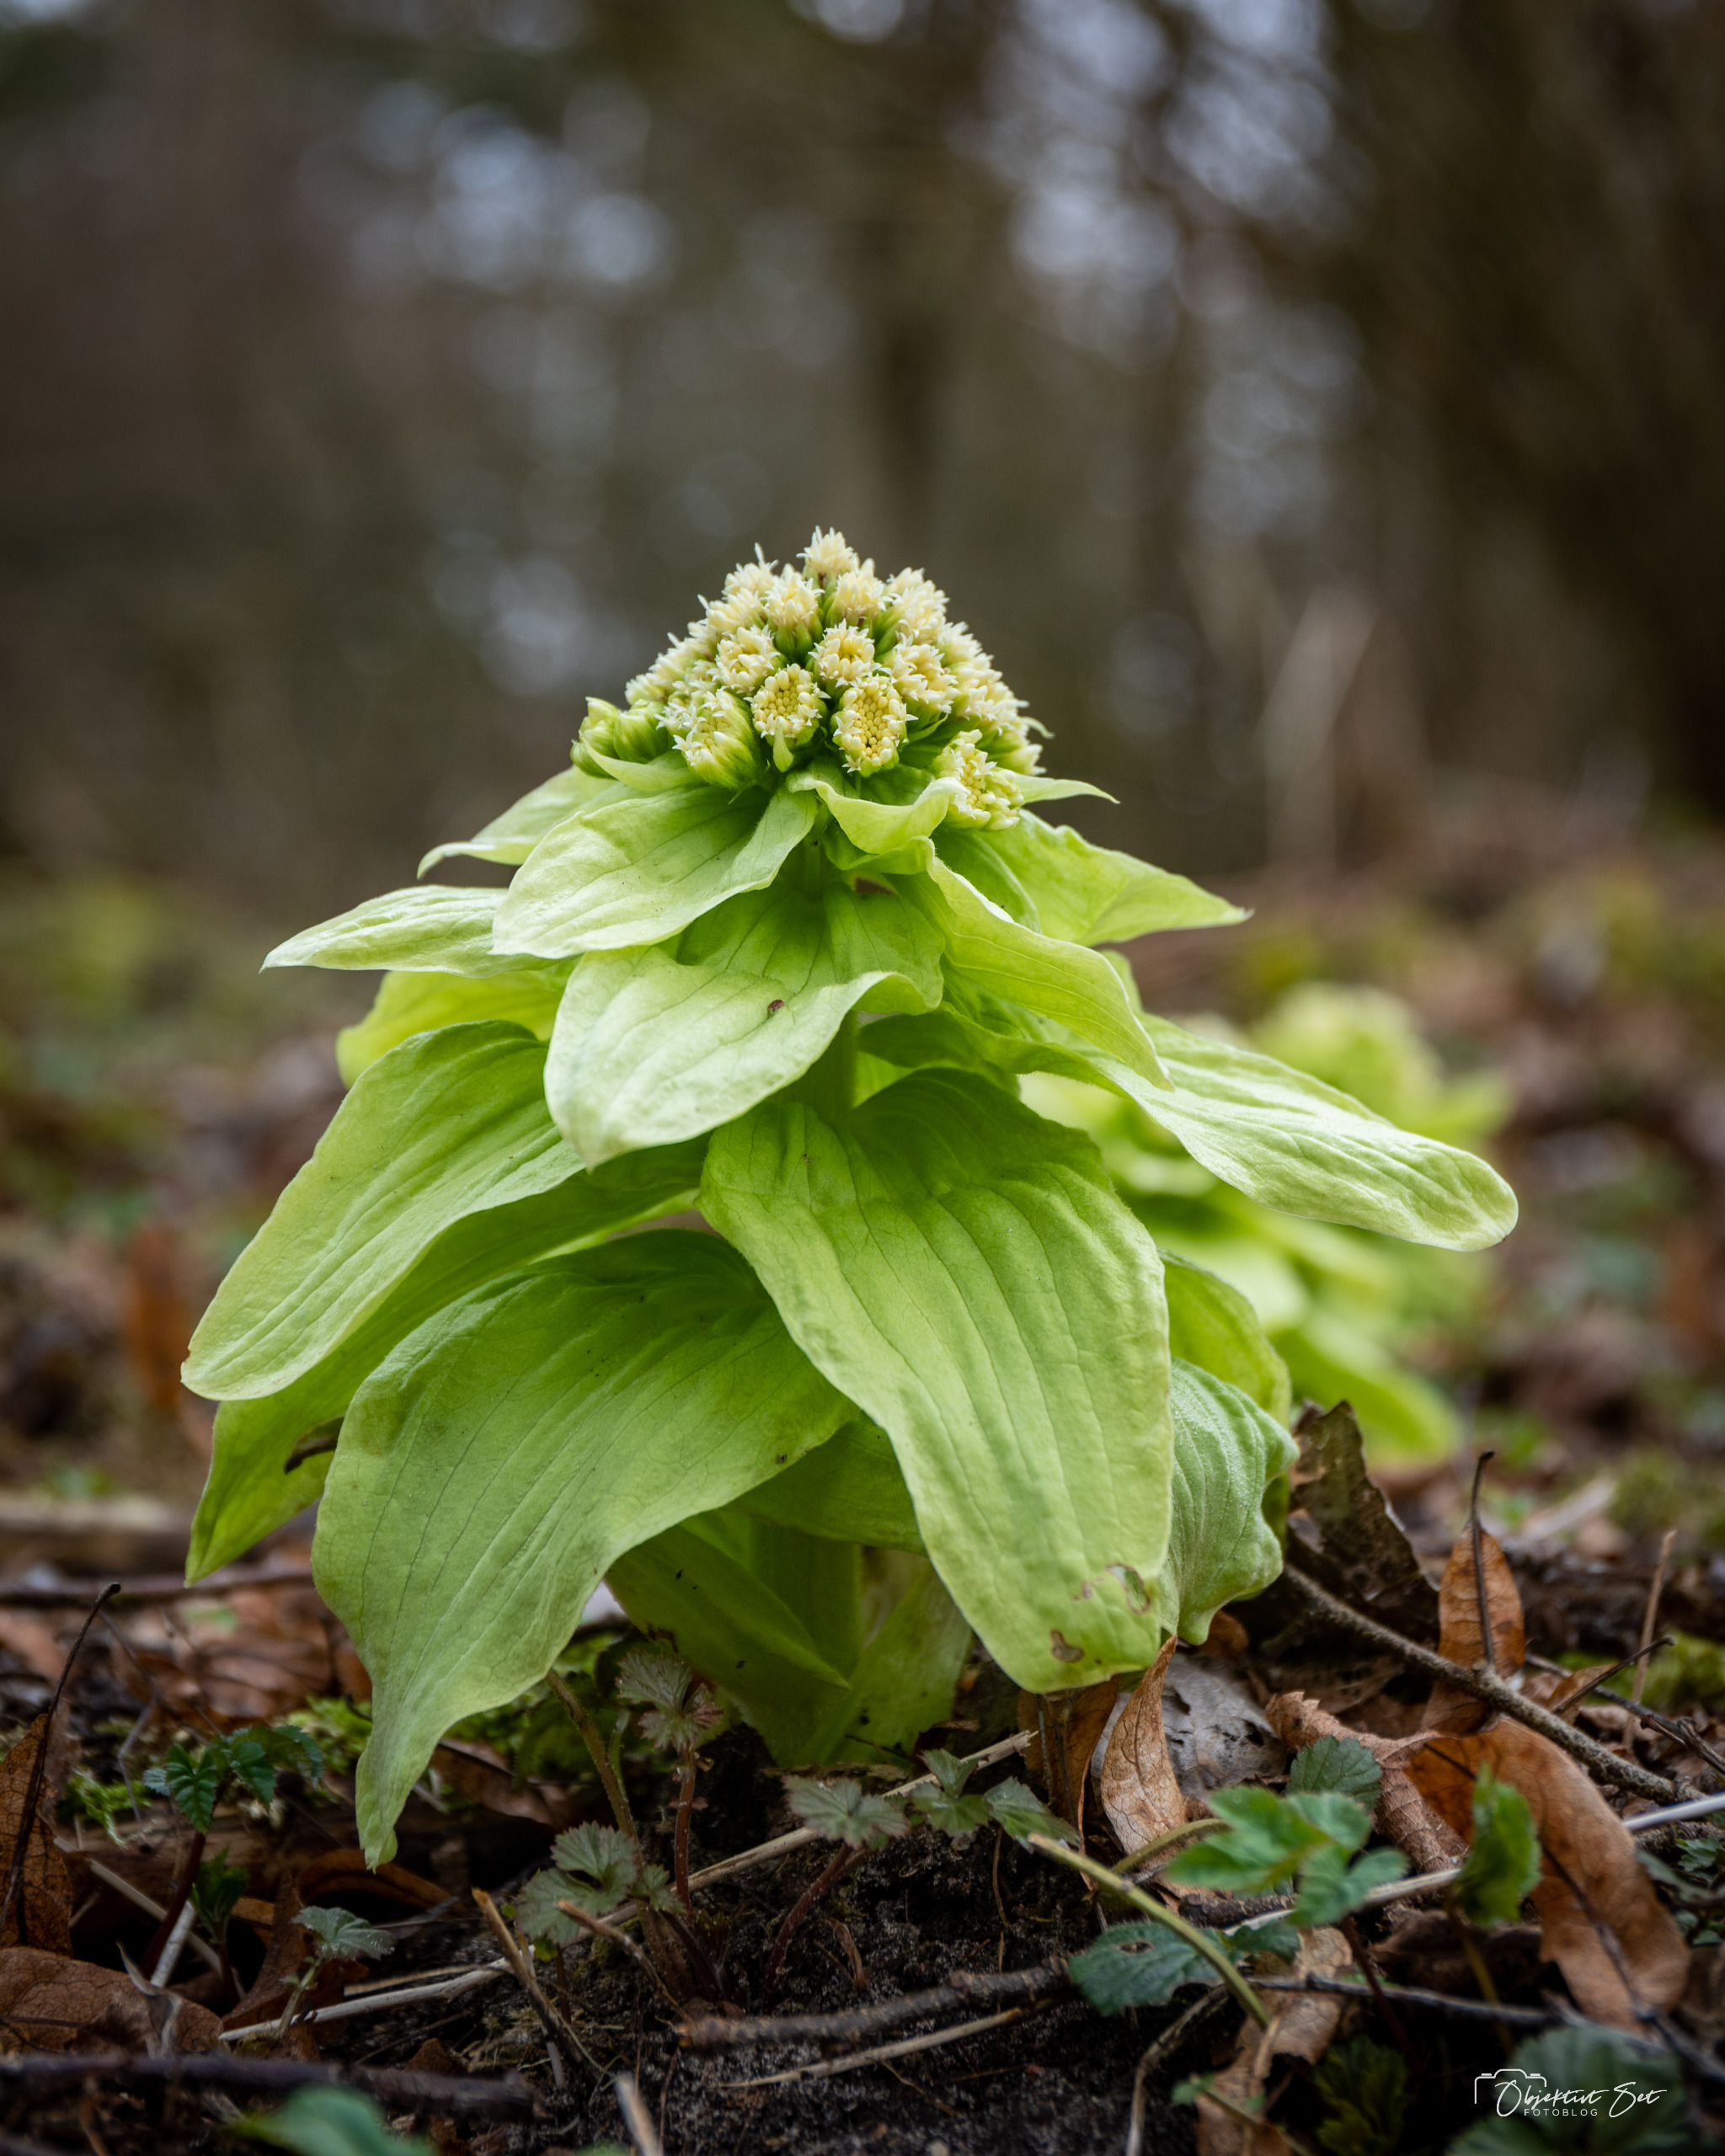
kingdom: Plantae
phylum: Tracheophyta
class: Magnoliopsida
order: Asterales
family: Asteraceae
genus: Petasites
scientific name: Petasites japonicus
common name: Japansk hestehov
